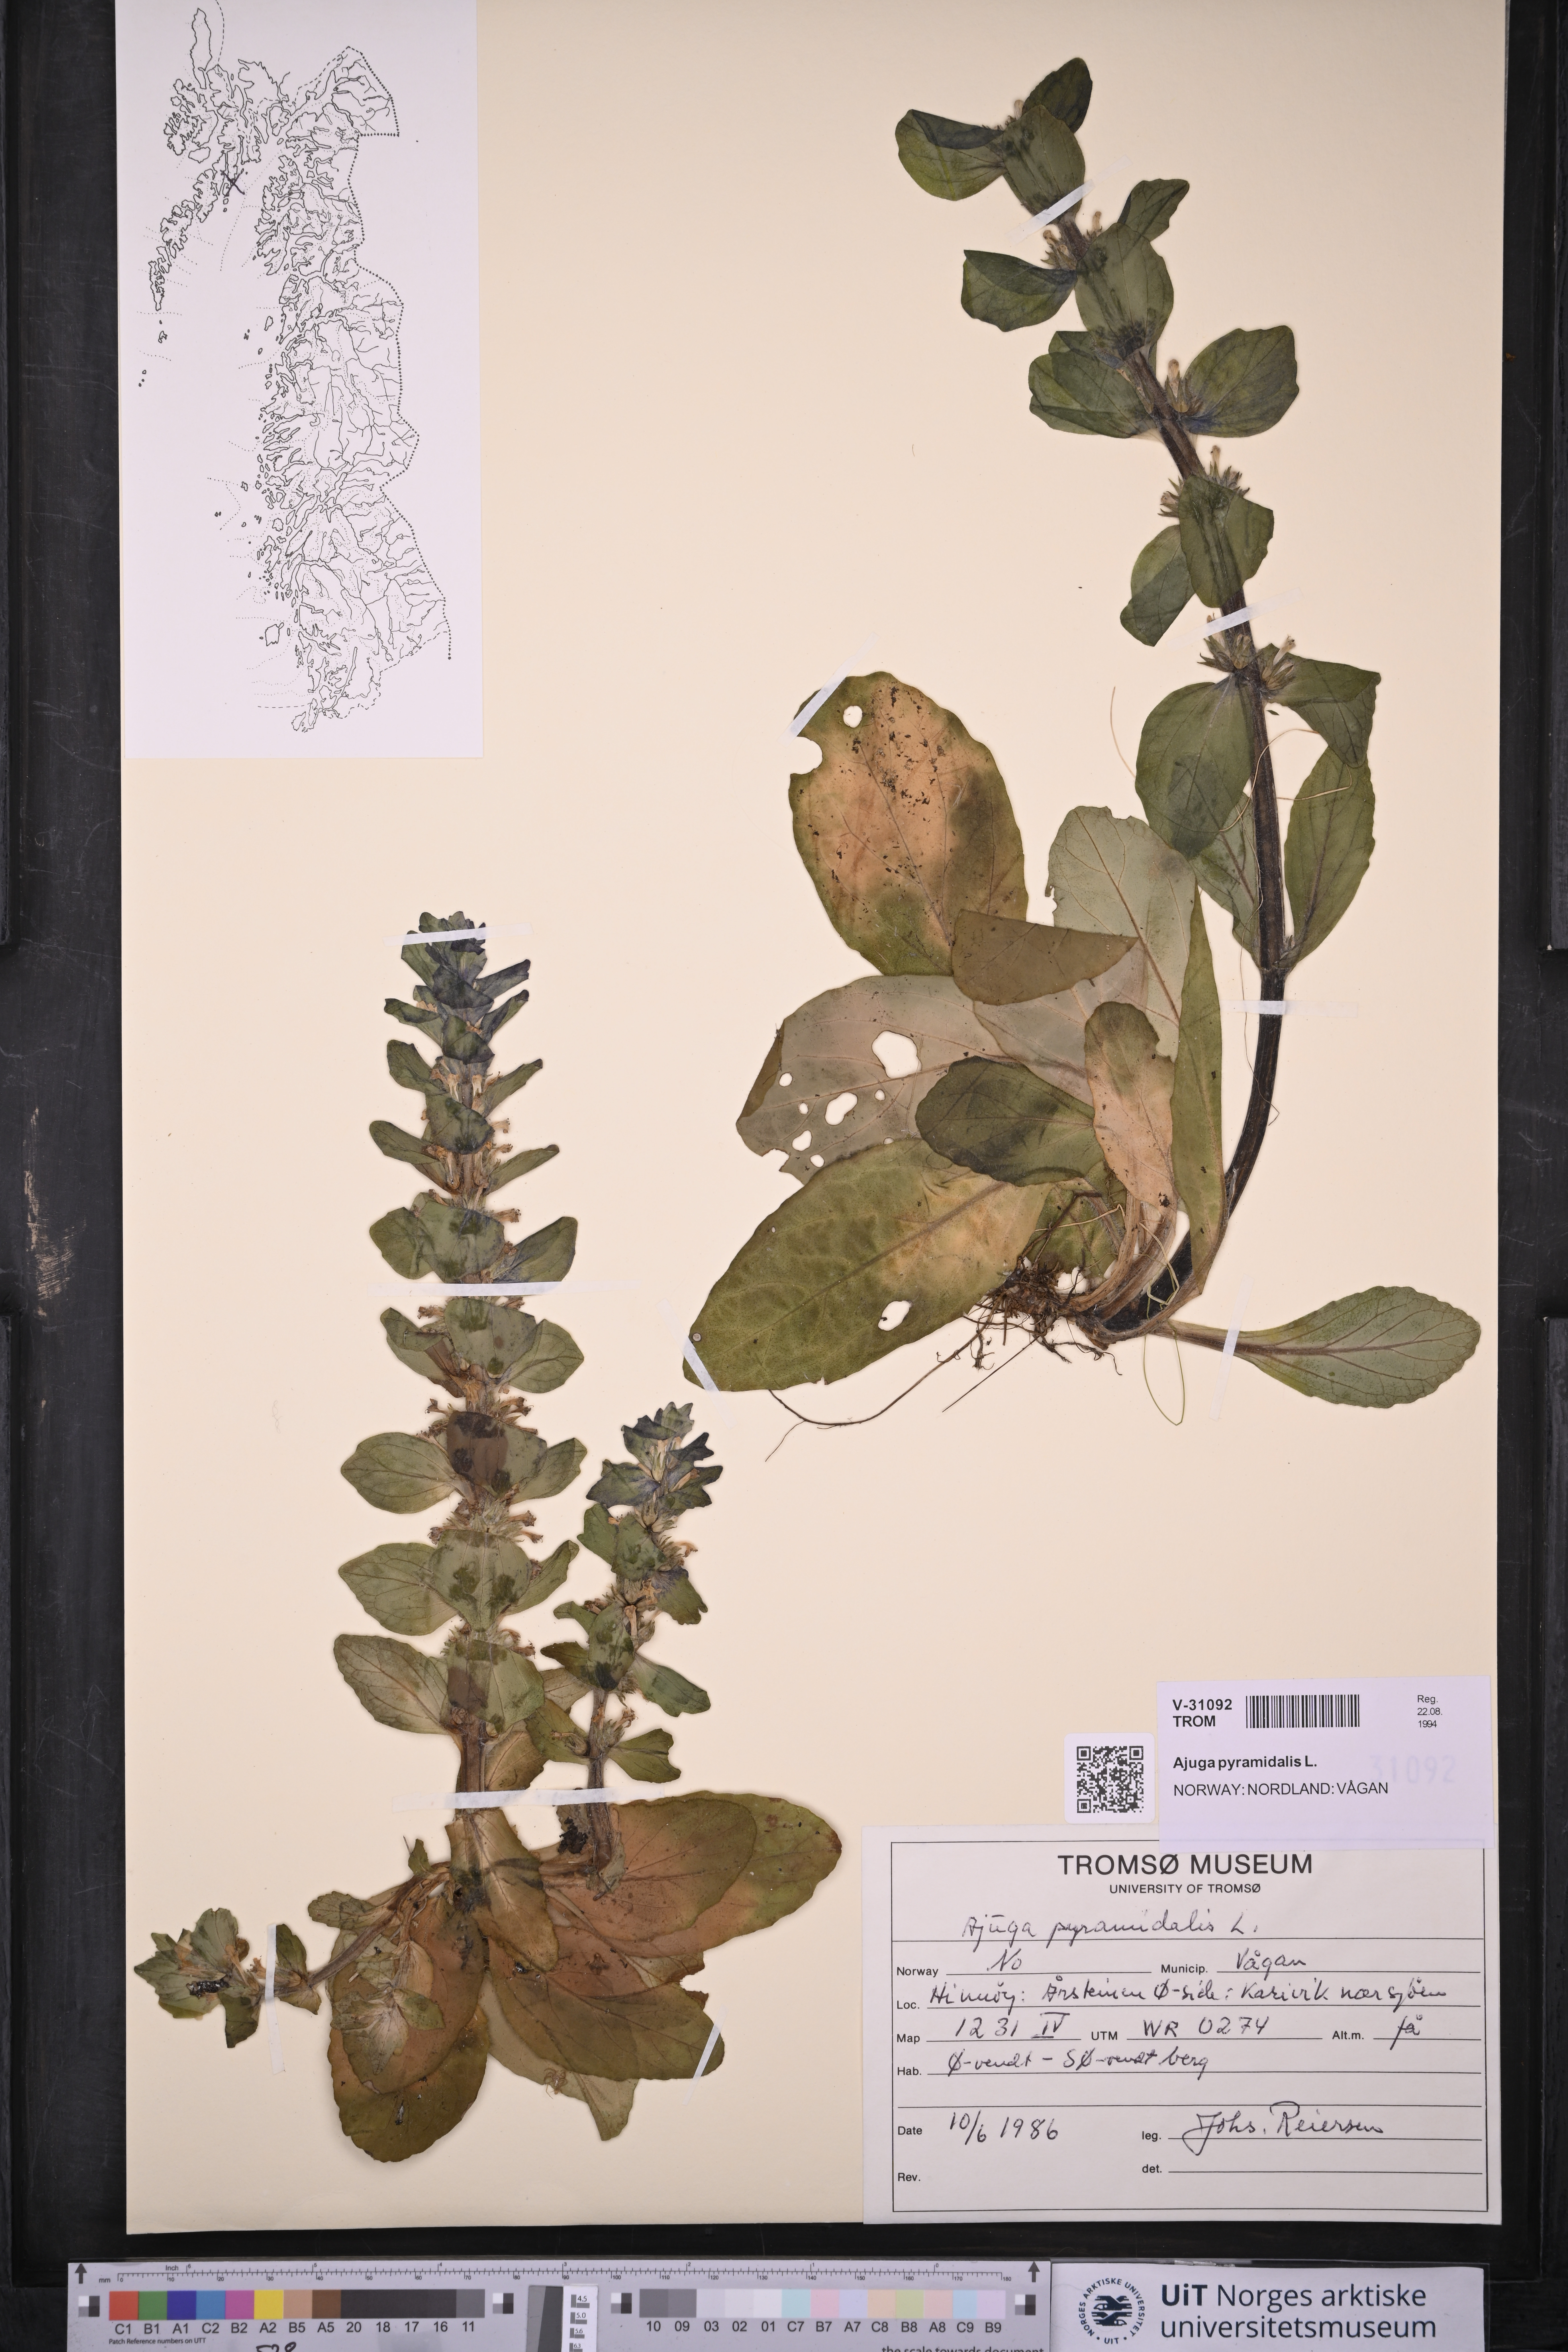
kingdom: Plantae
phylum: Tracheophyta
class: Magnoliopsida
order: Lamiales
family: Lamiaceae
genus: Ajuga
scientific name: Ajuga pyramidalis
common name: Pyramid bugle
